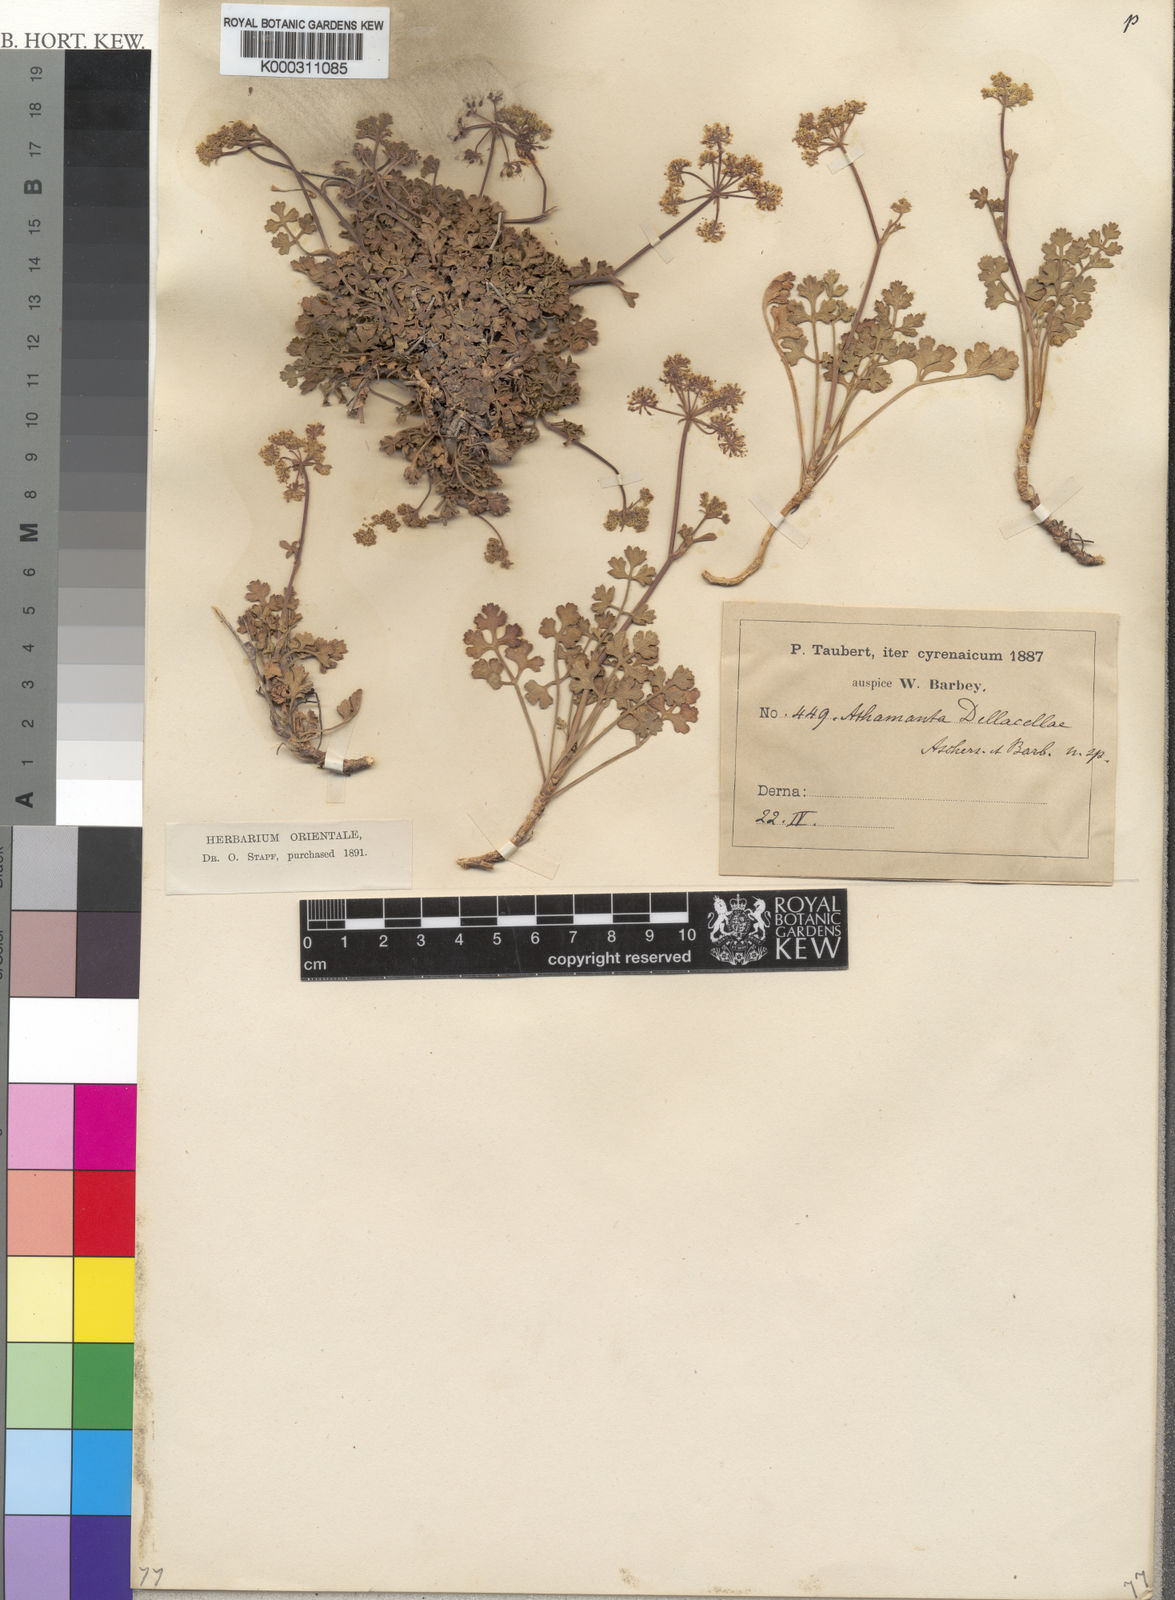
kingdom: Plantae
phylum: Tracheophyta
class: Magnoliopsida
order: Apiales
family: Apiaceae
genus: Daucus
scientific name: Daucus della-cellae
